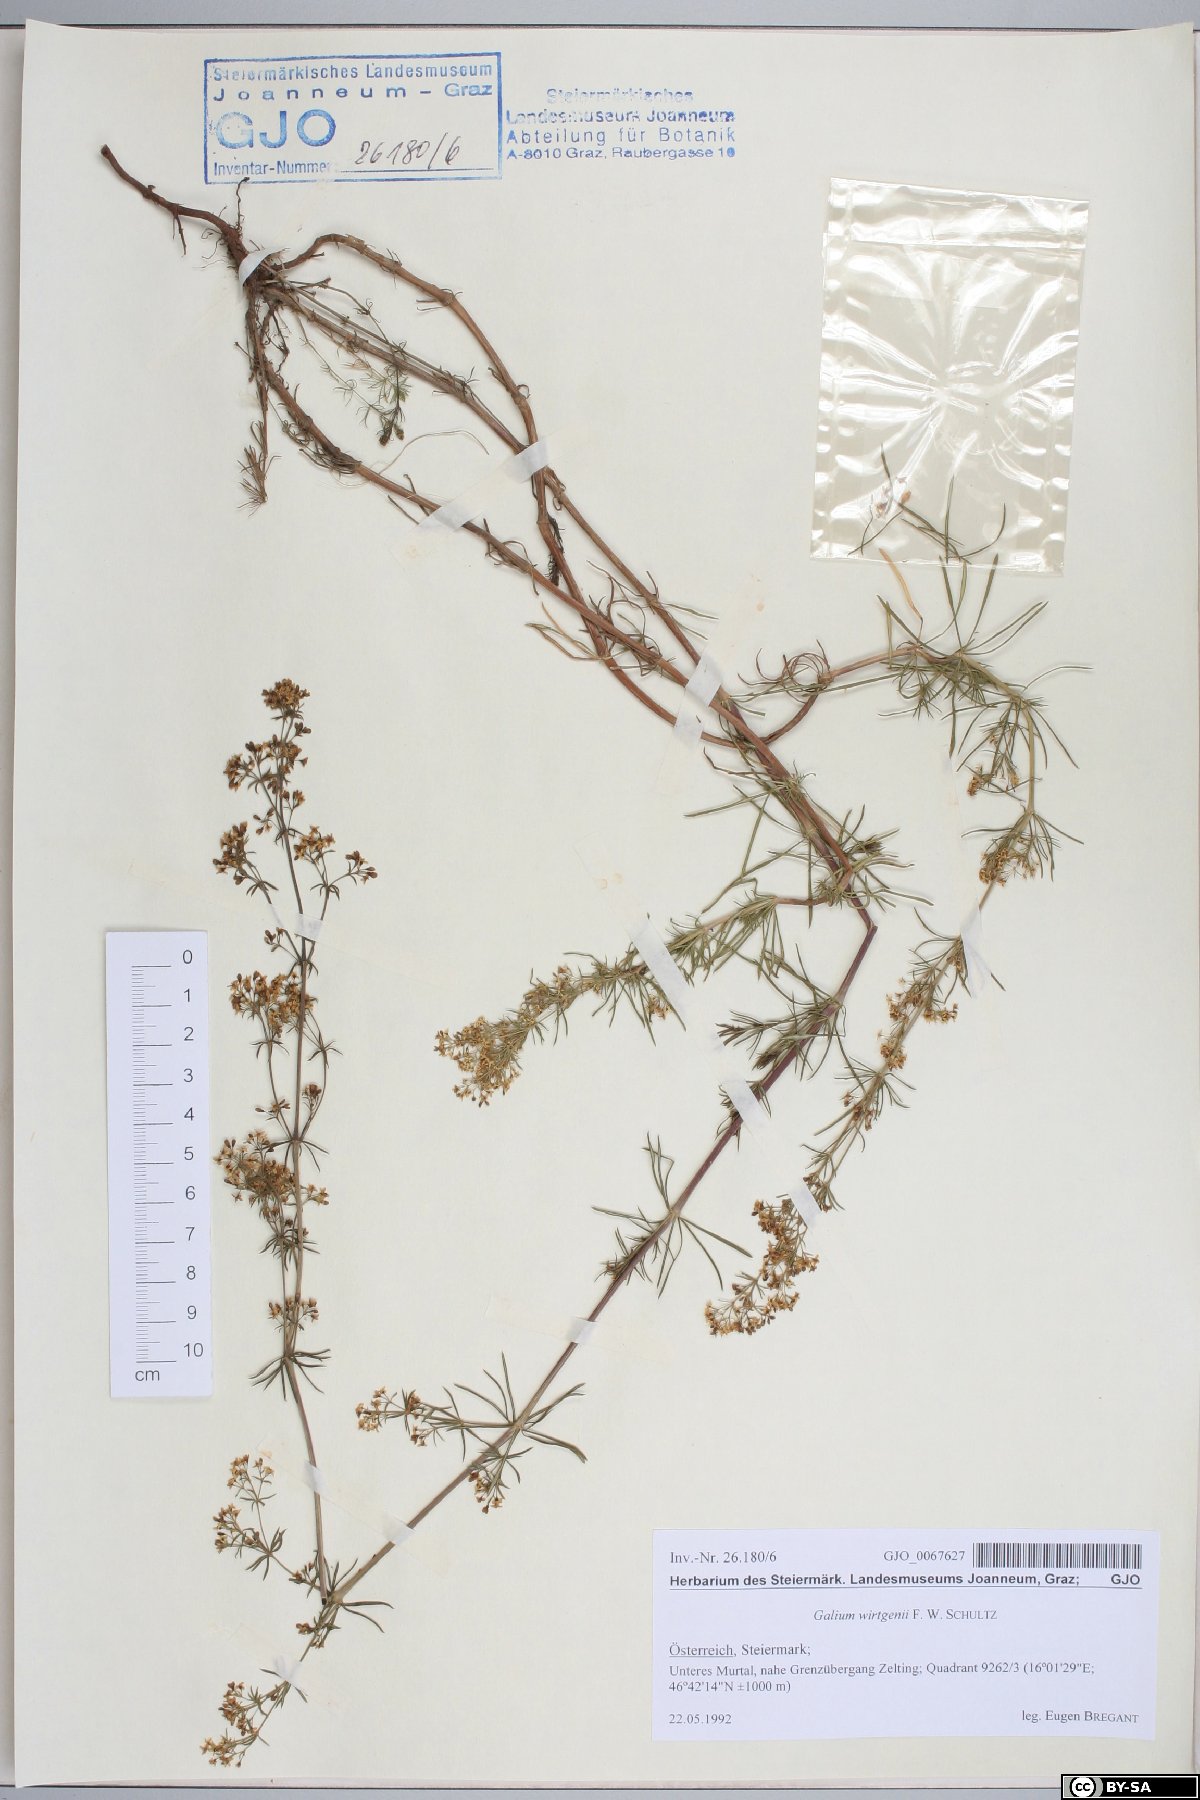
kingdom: Plantae
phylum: Tracheophyta
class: Magnoliopsida
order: Gentianales
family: Rubiaceae
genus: Galium
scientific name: Galium verum
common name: Lady's bedstraw
